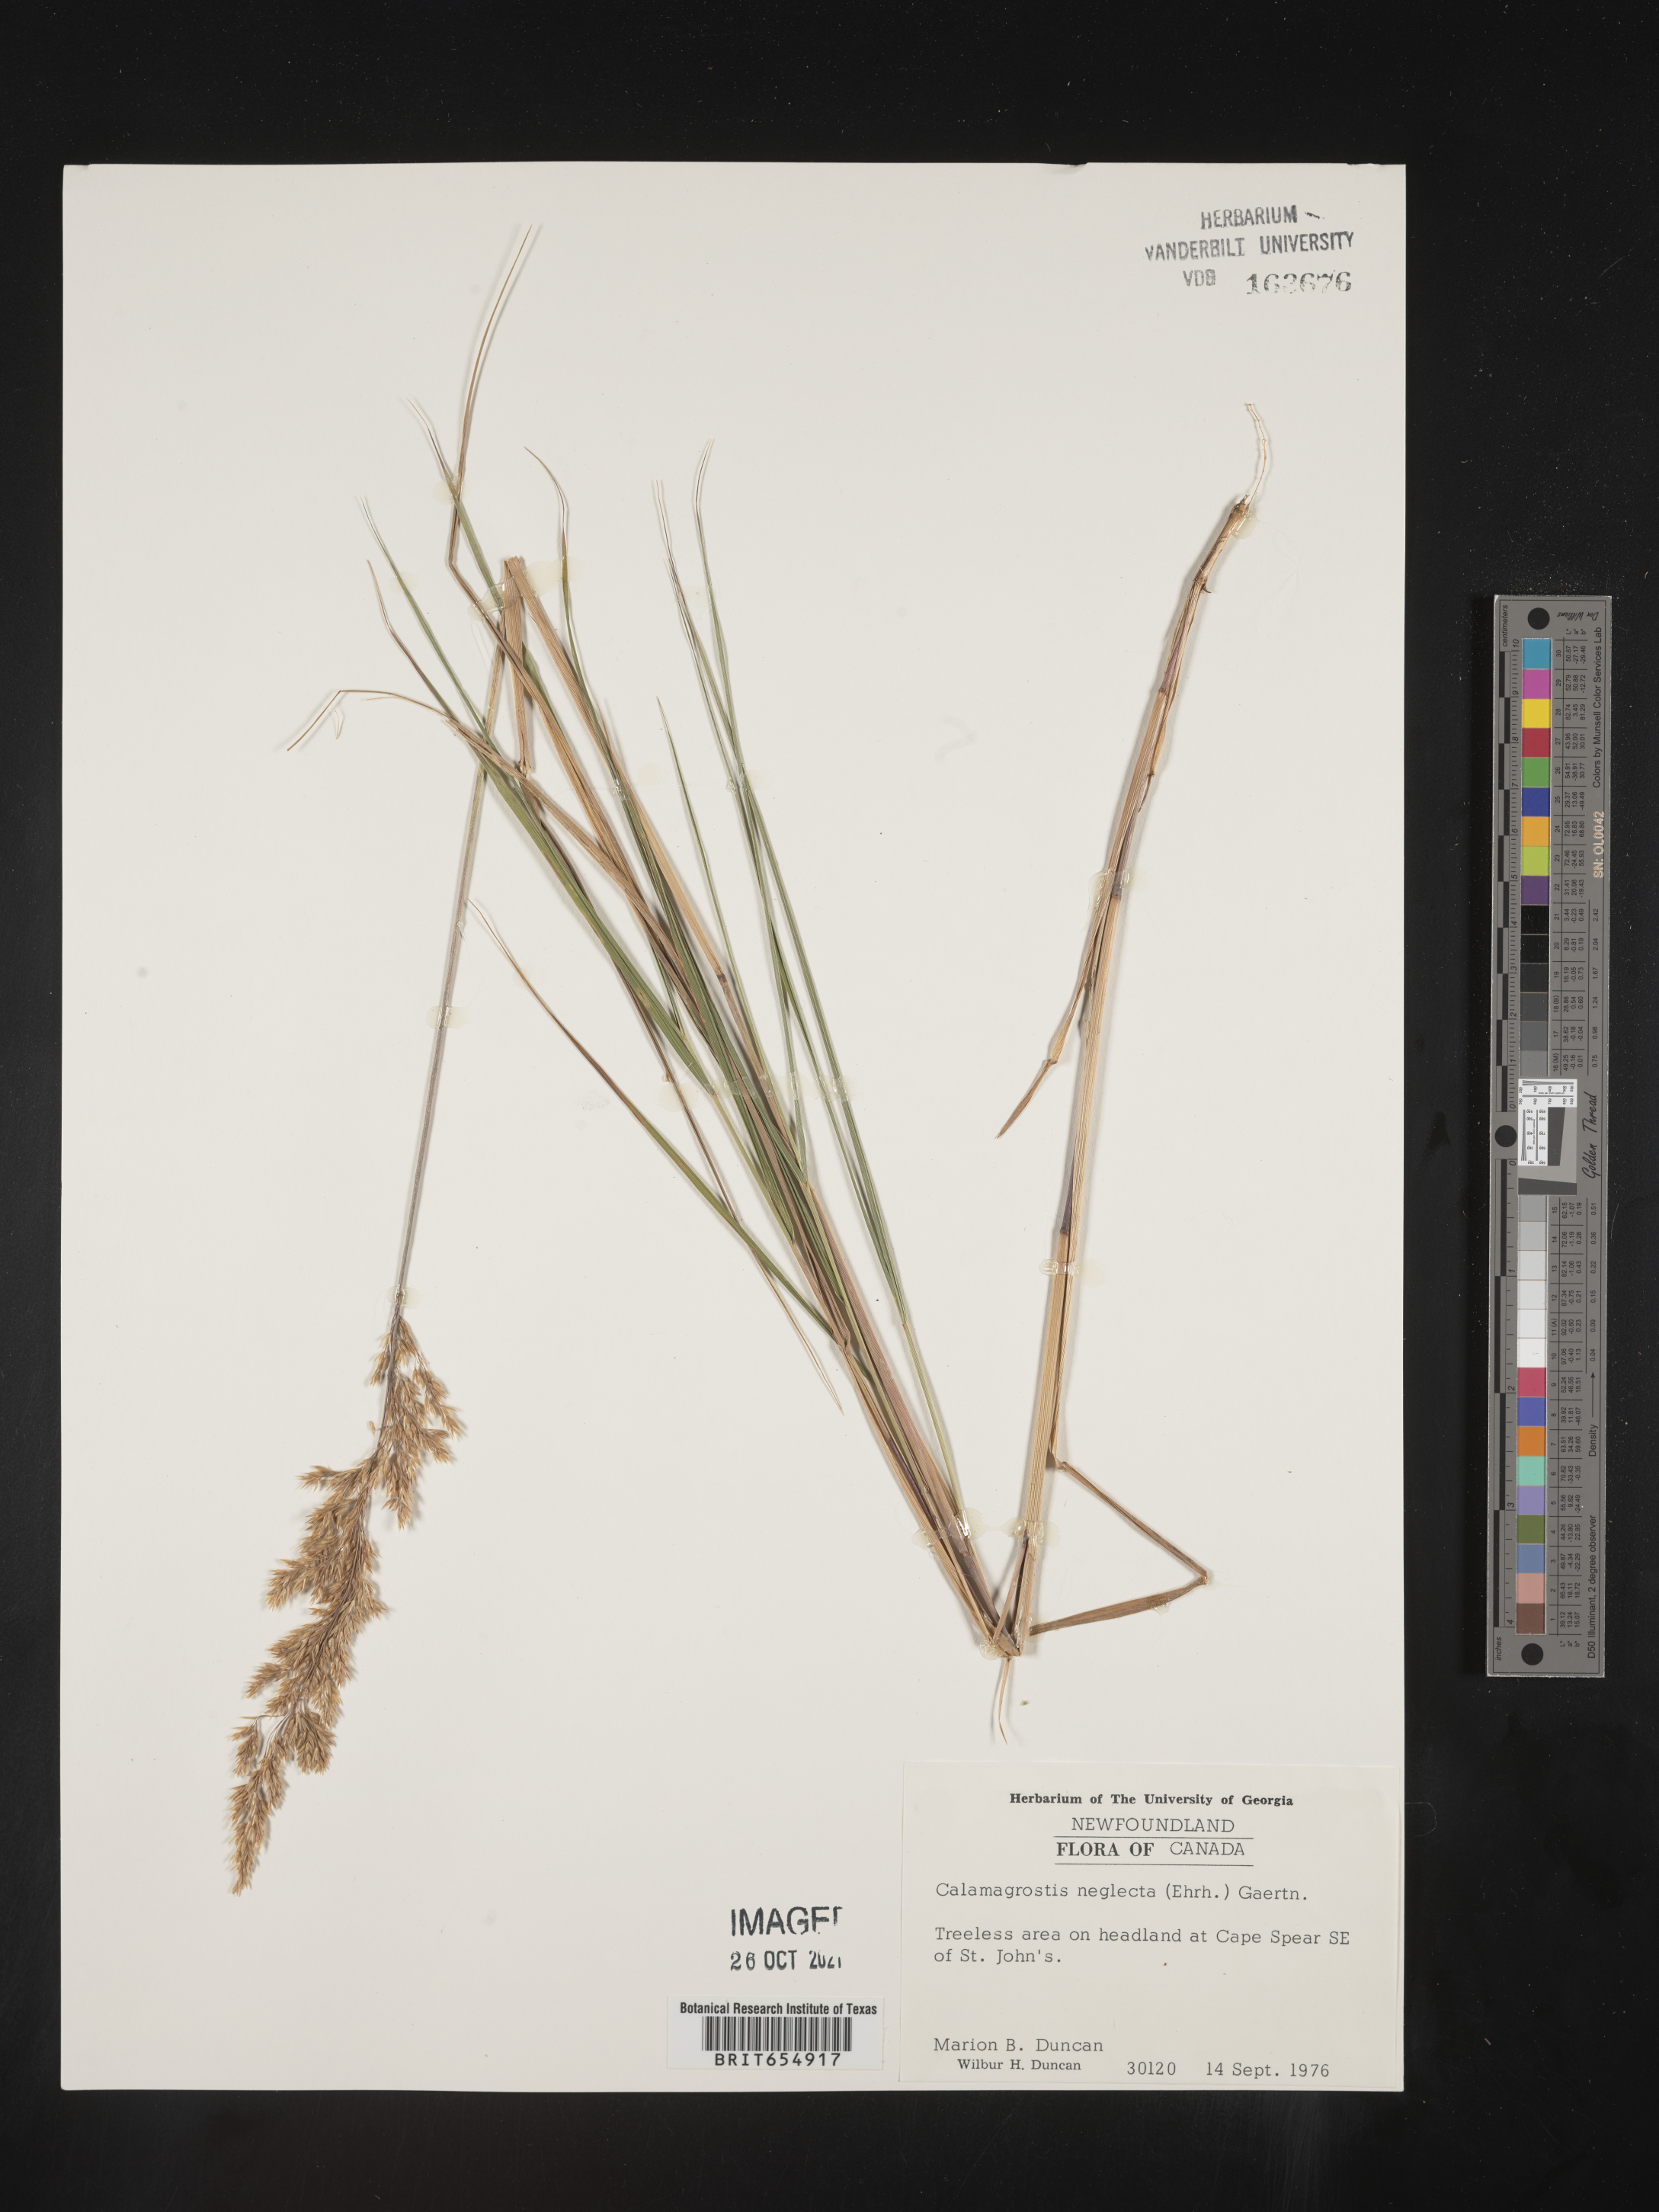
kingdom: Plantae
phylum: Tracheophyta
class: Liliopsida
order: Poales
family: Poaceae
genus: Calamagrostis
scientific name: Calamagrostis
